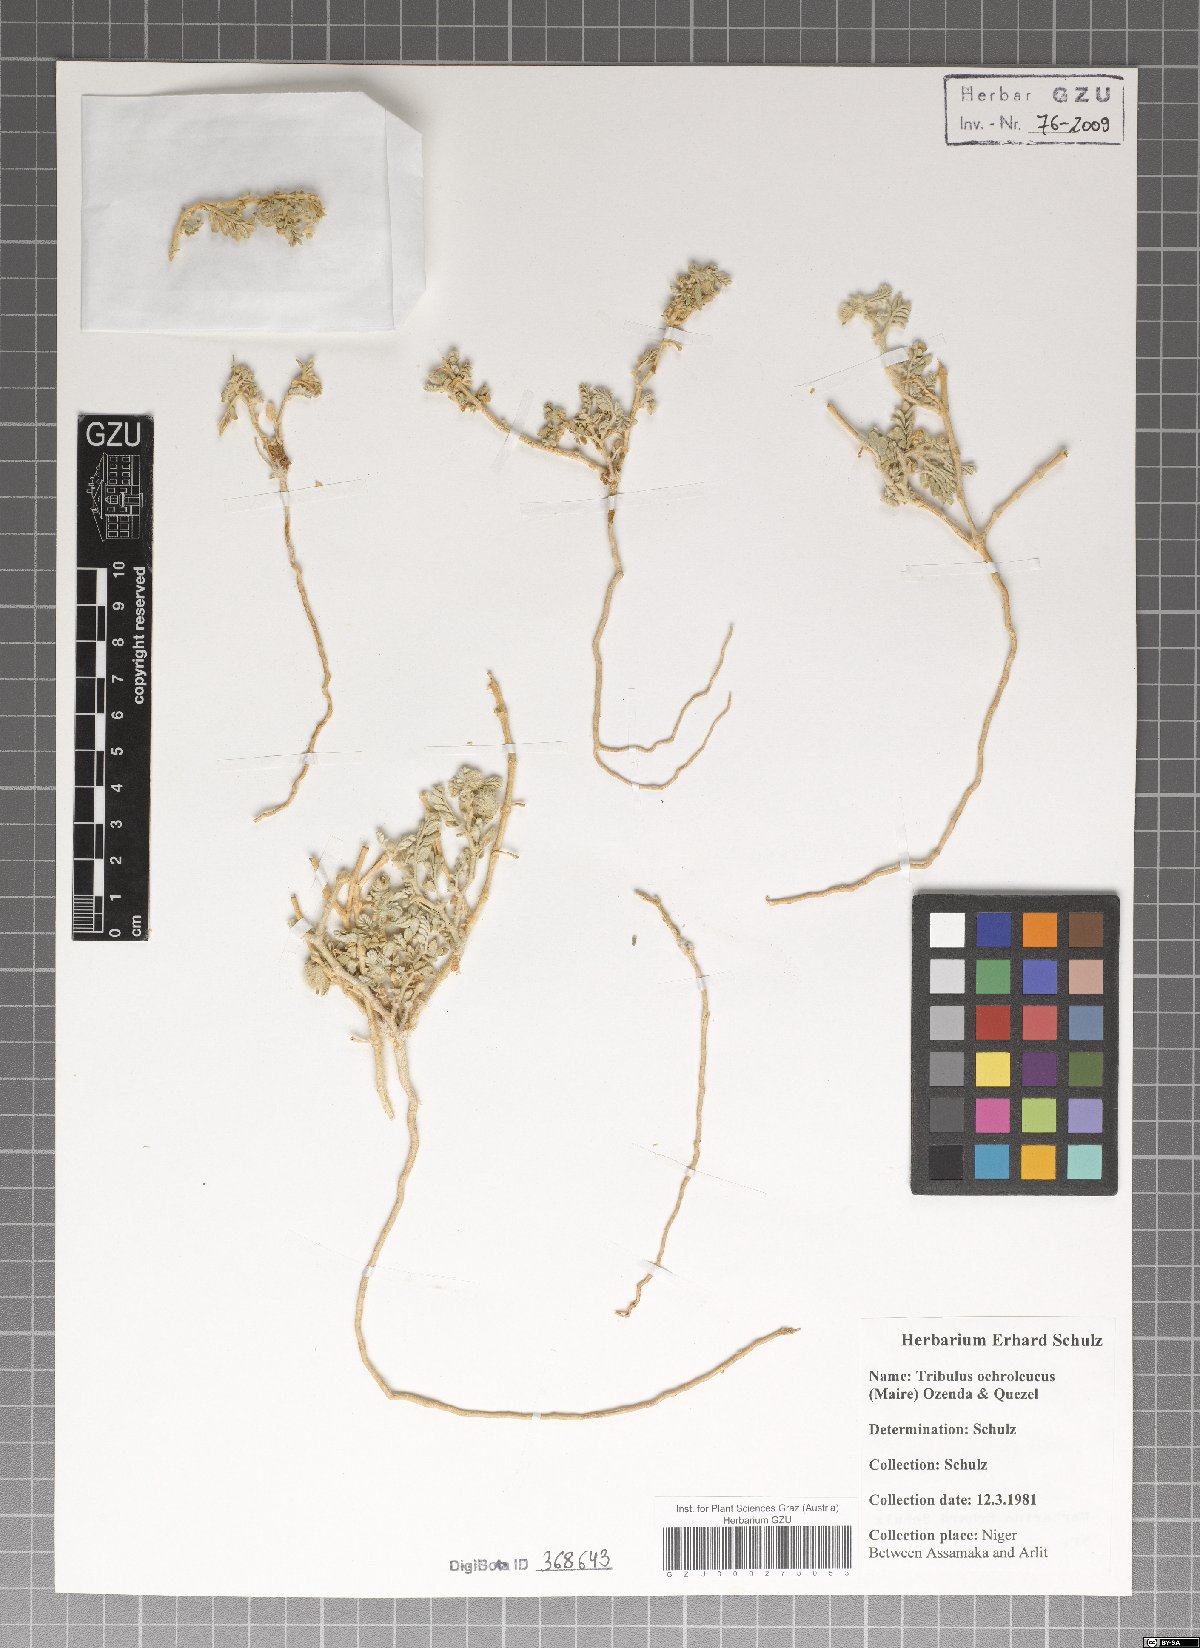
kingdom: Plantae
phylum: Tracheophyta
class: Magnoliopsida
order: Zygophyllales
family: Zygophyllaceae
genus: Tribulus
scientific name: Tribulus ochroleucus
